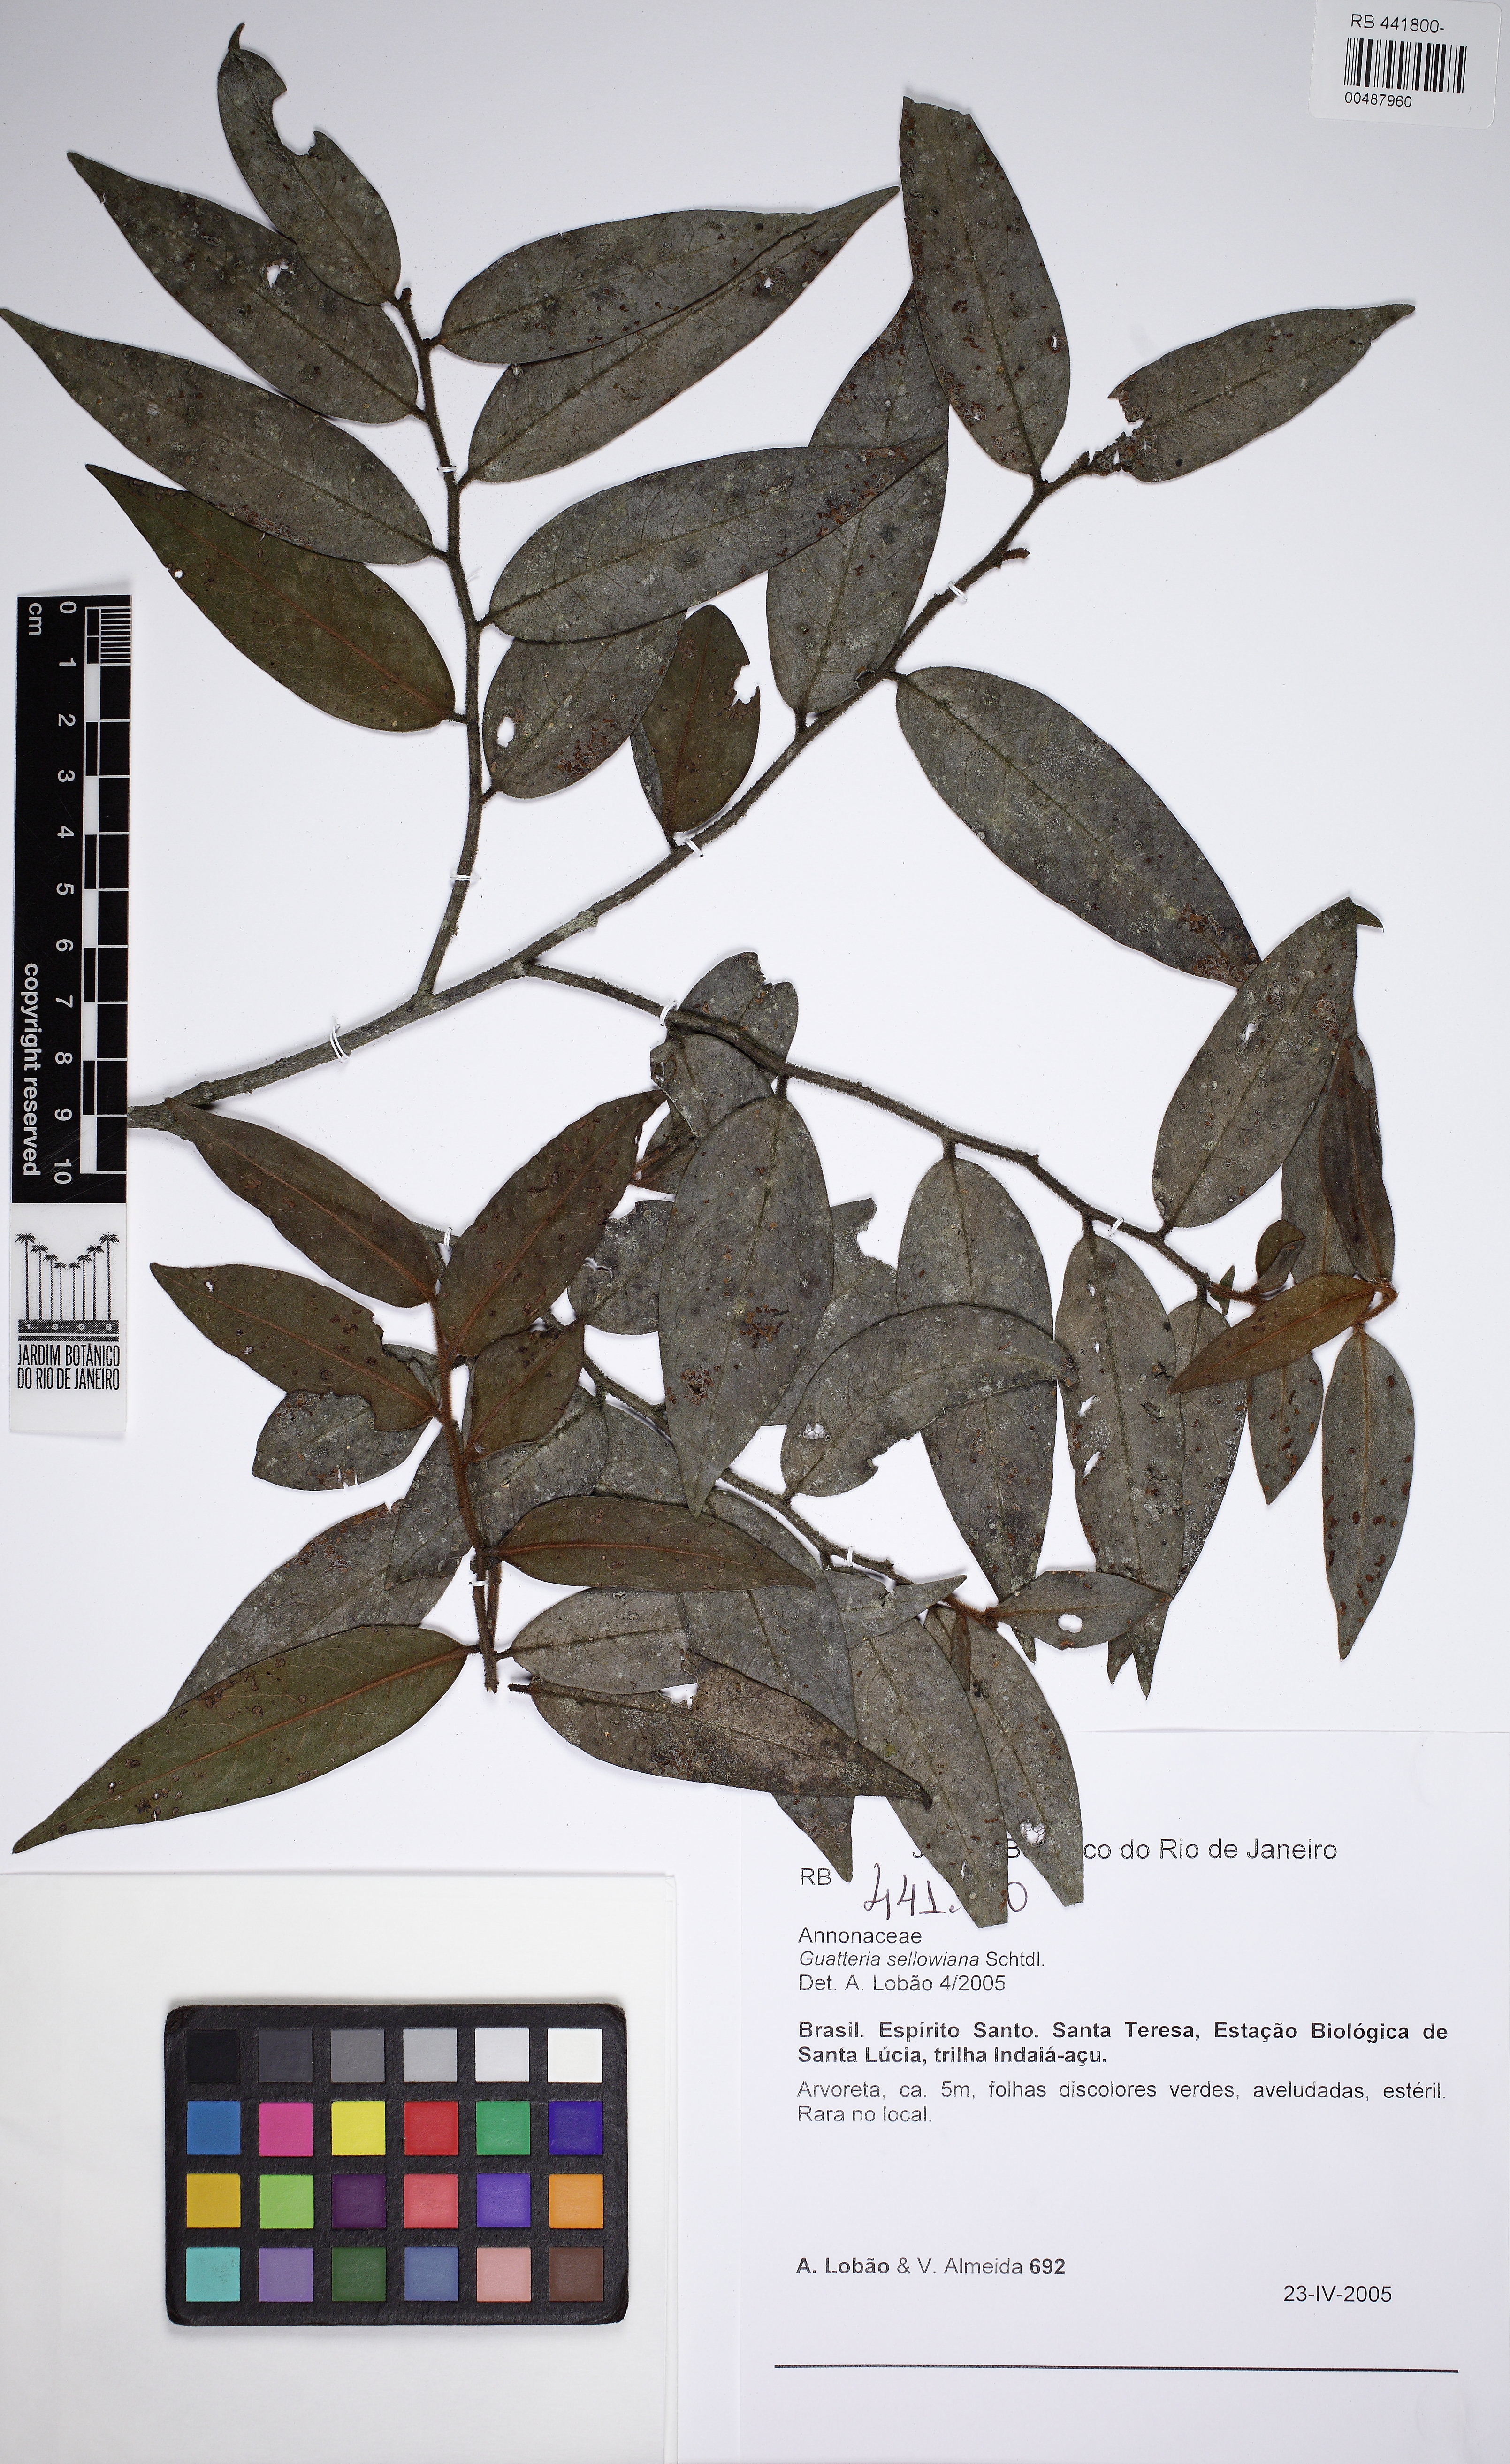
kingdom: Plantae
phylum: Tracheophyta
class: Magnoliopsida
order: Magnoliales
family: Annonaceae
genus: Guatteria
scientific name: Guatteria sellowiana
